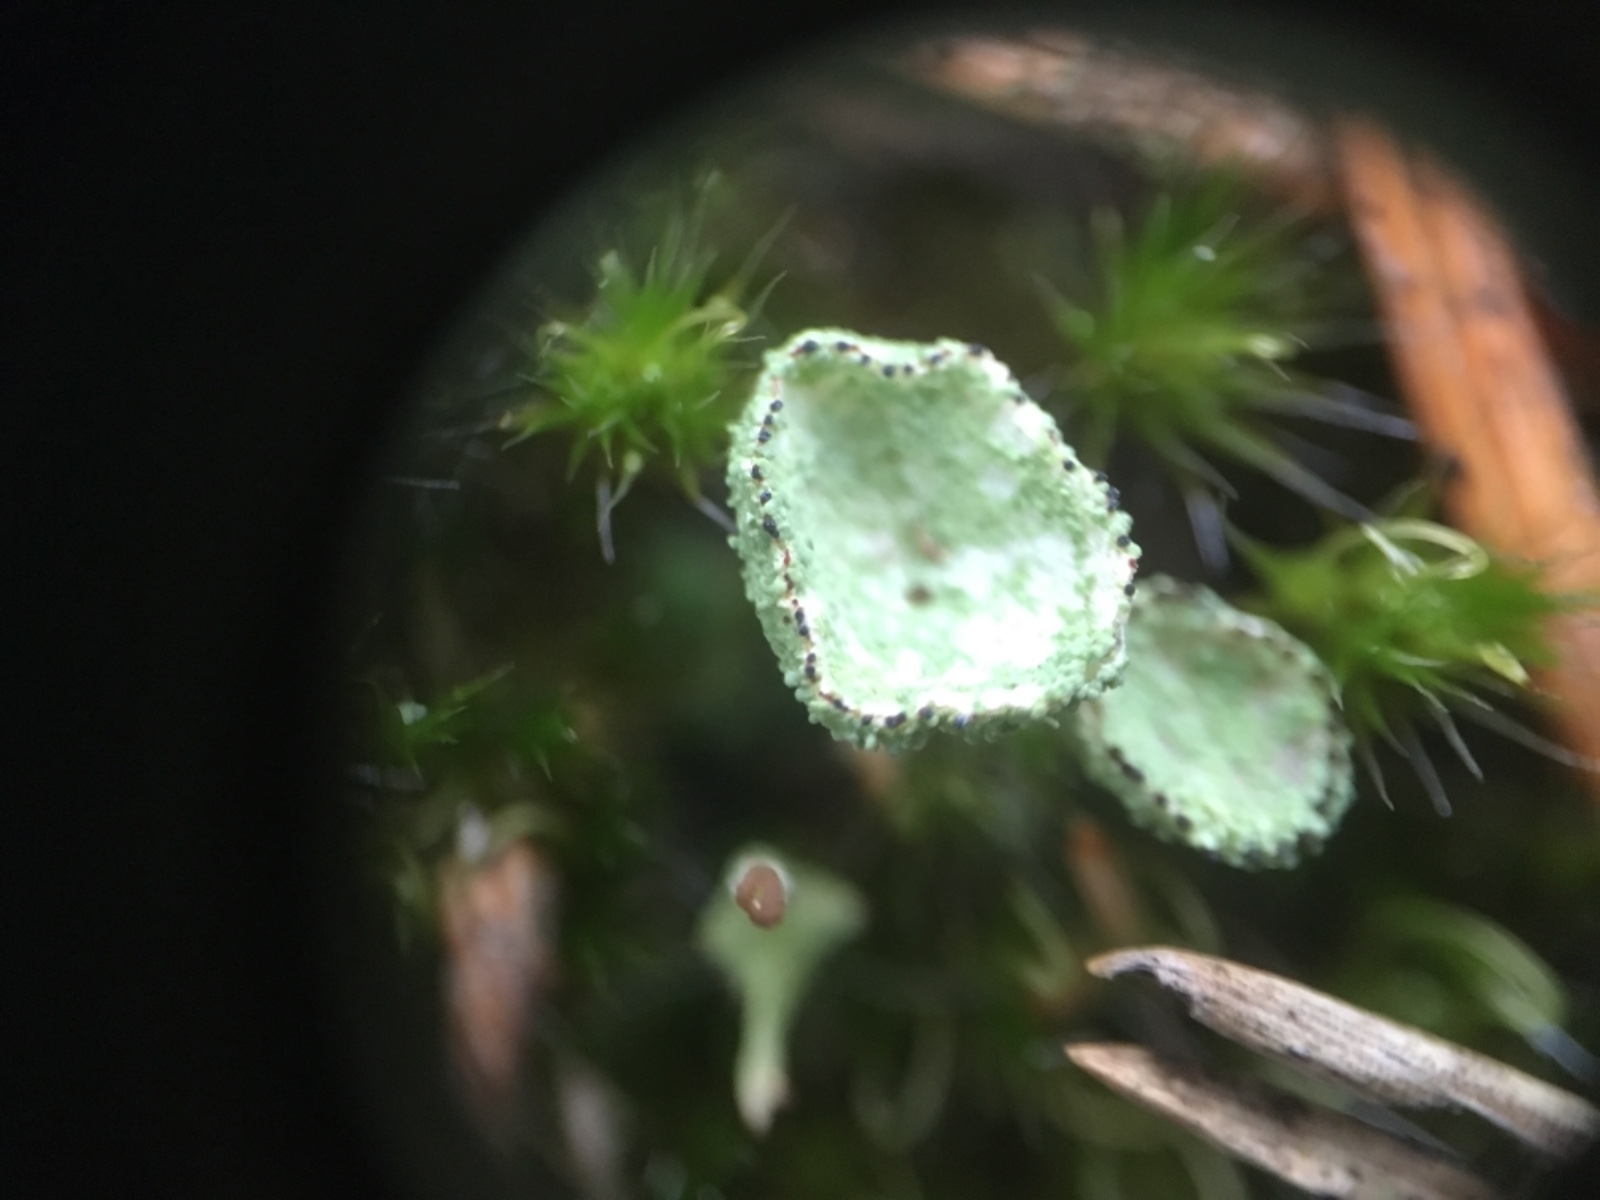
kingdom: Fungi
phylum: Ascomycota
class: Lecanoromycetes
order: Lecanorales
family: Cladoniaceae
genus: Cladonia
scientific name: Cladonia
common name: brungrøn bægerlav
